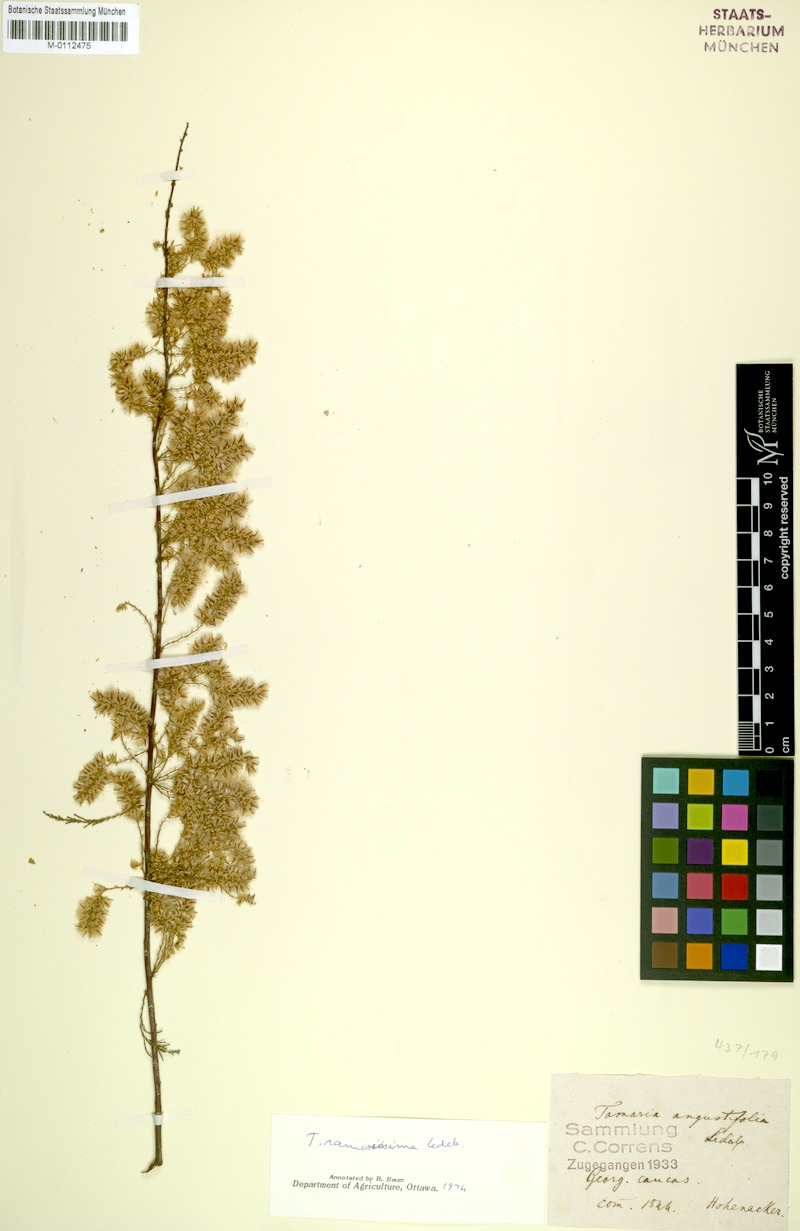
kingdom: Plantae
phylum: Tracheophyta
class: Magnoliopsida
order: Caryophyllales
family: Tamaricaceae
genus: Tamarix
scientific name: Tamarix hohenackeri
